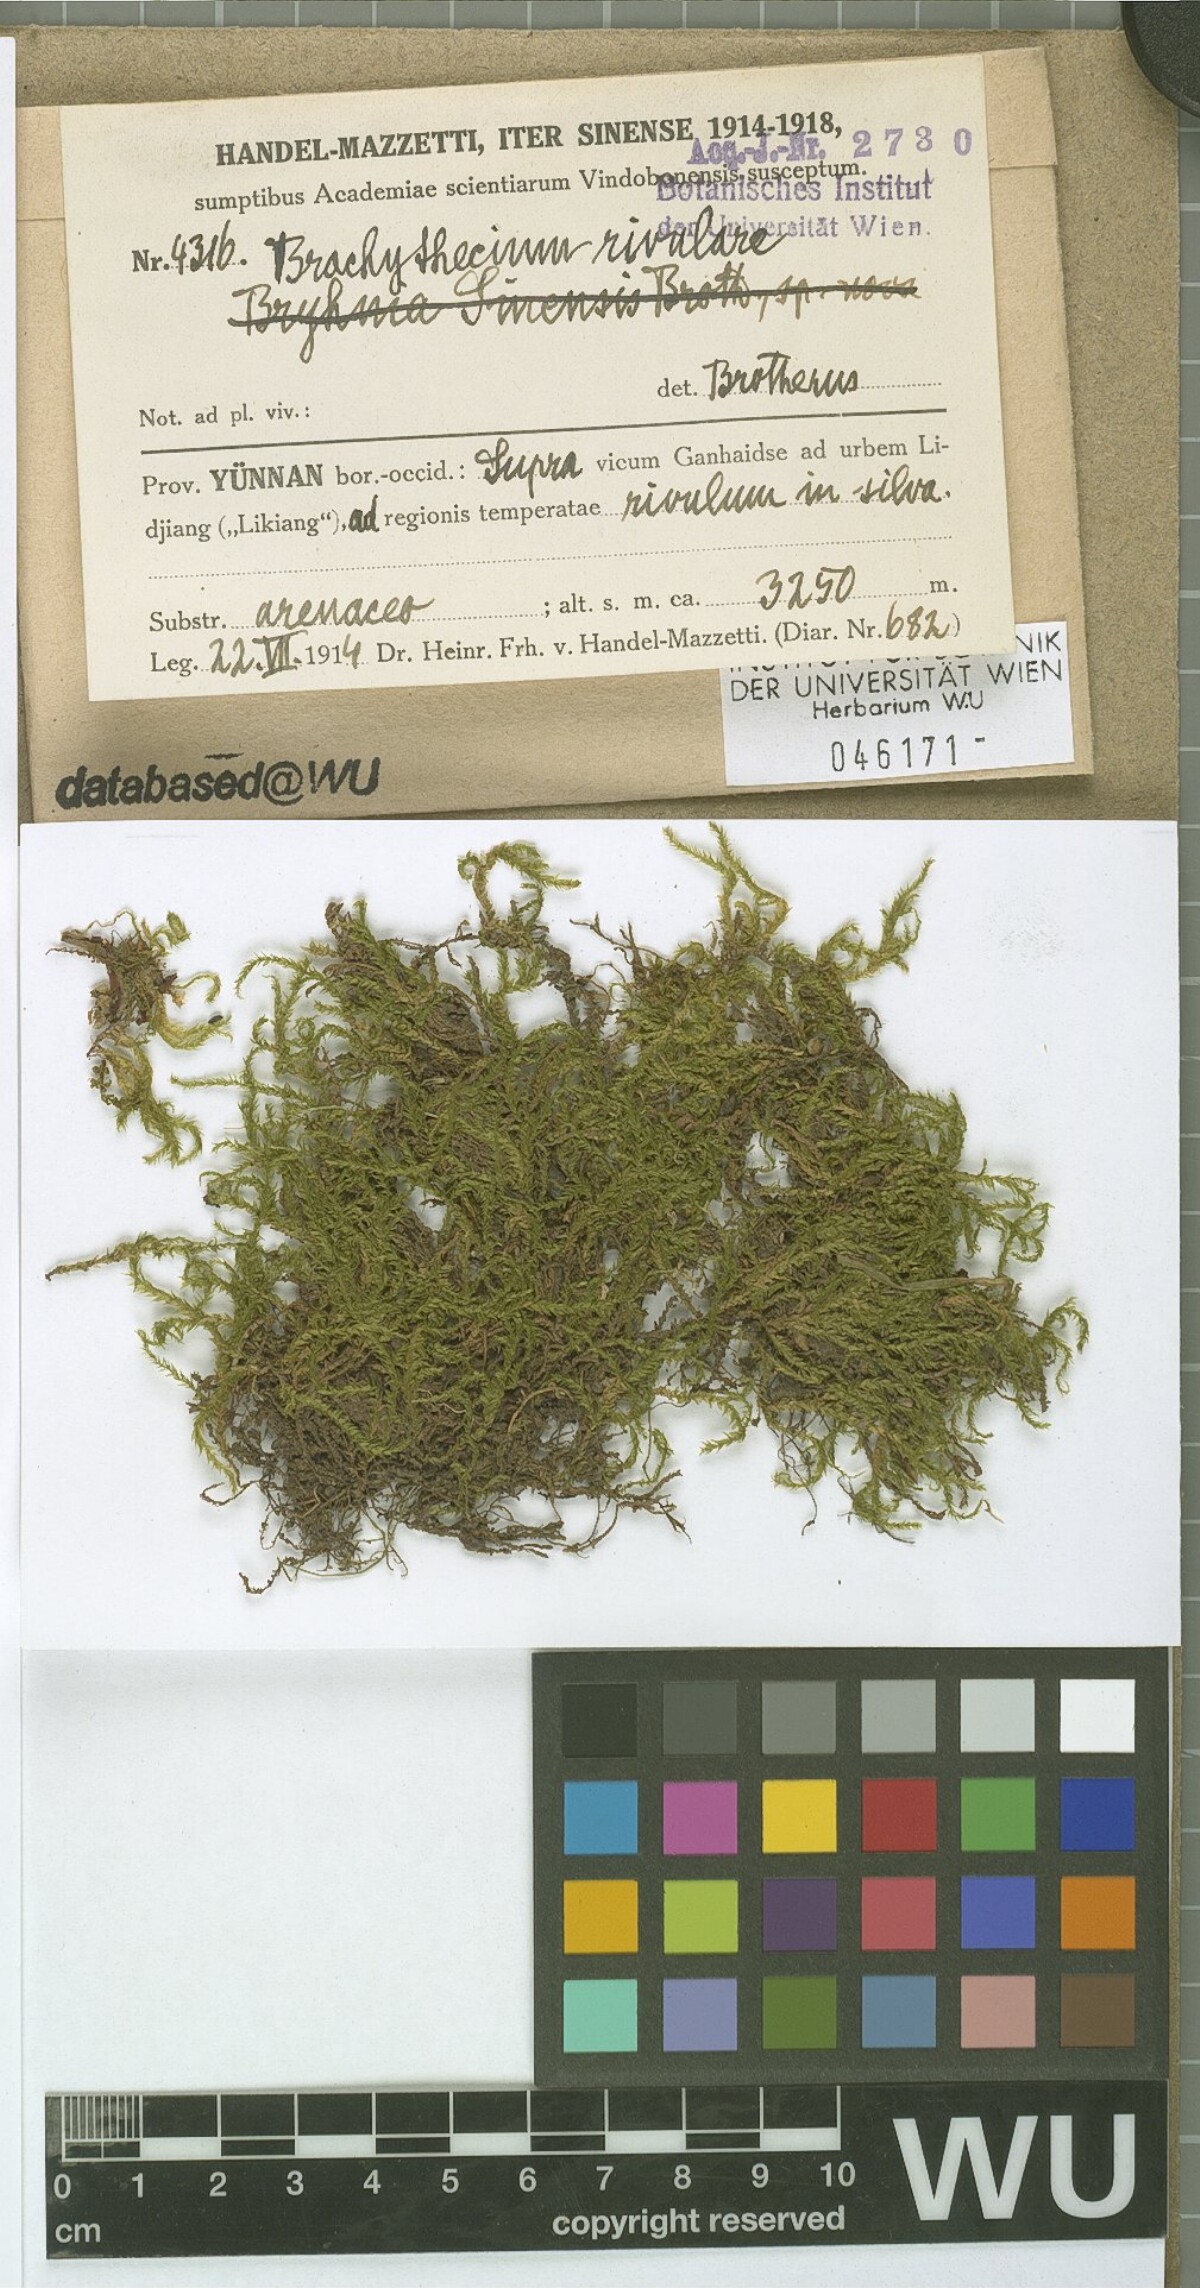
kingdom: Plantae
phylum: Bryophyta
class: Bryopsida
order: Hypnales
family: Brachytheciaceae
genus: Brachythecium
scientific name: Brachythecium rivulare
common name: River ragged moss
